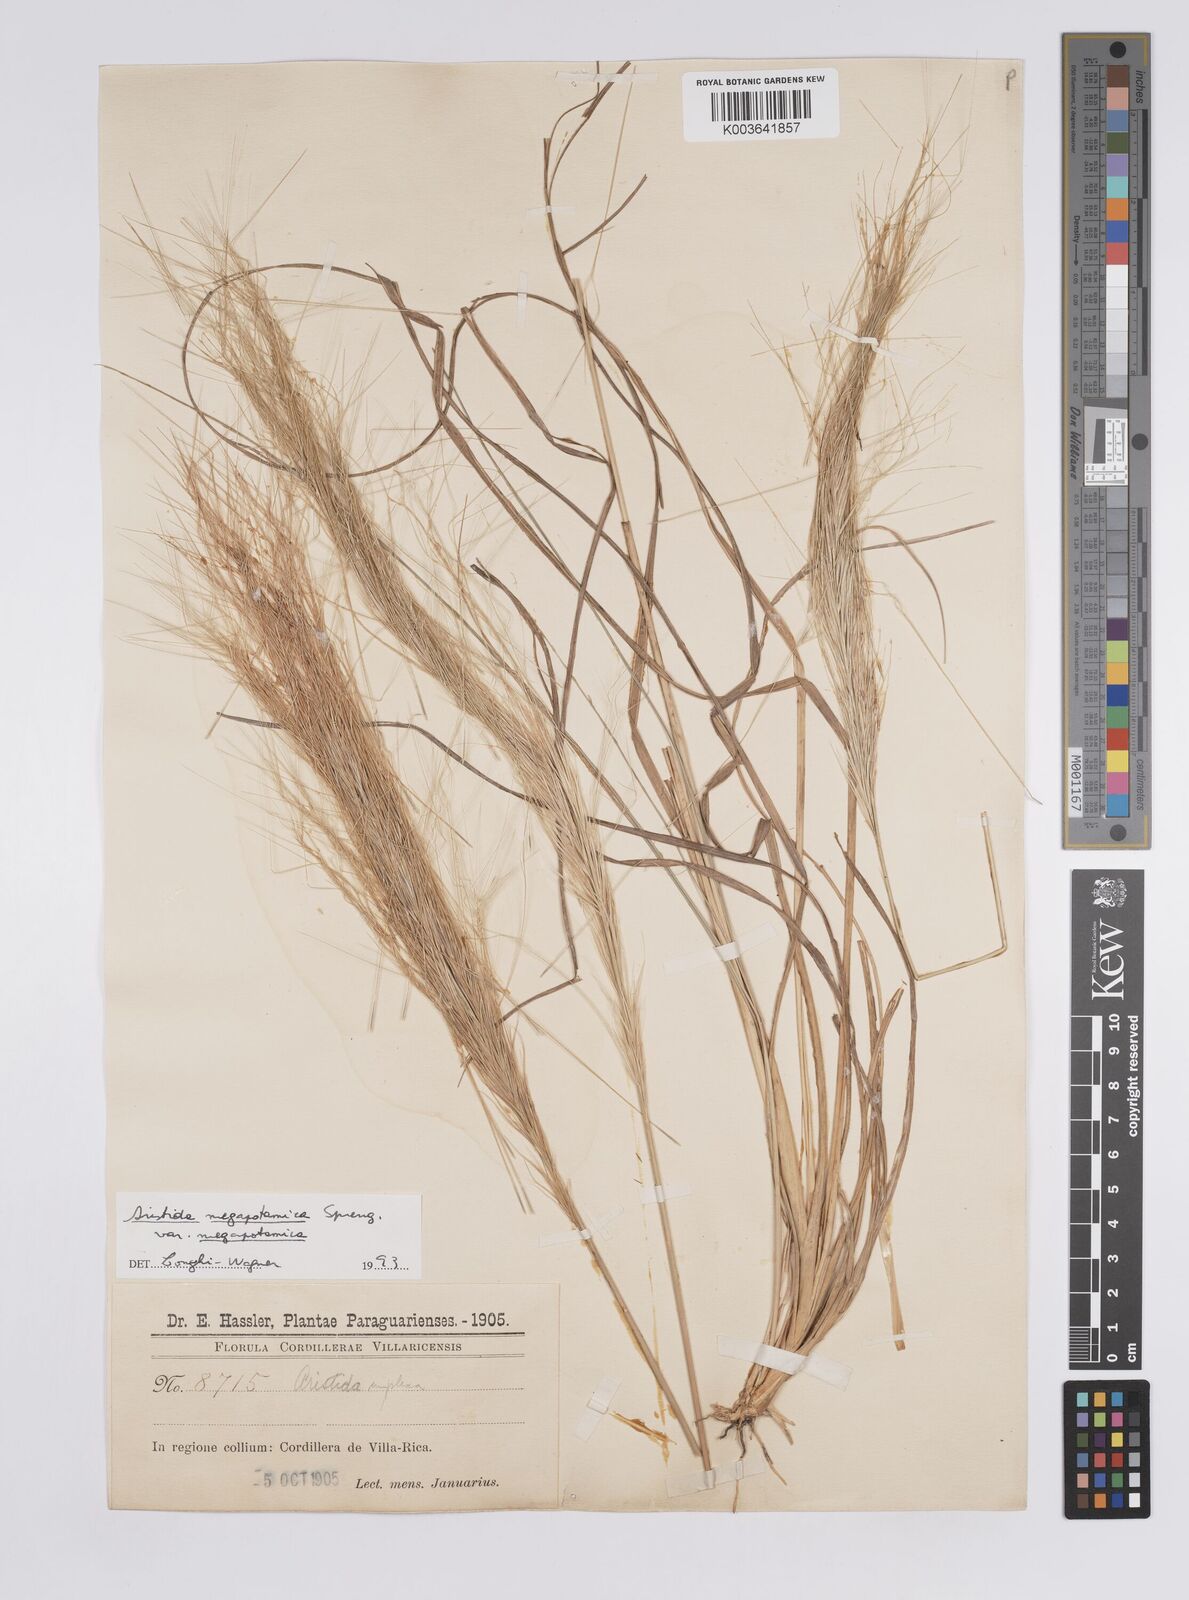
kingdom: Plantae
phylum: Tracheophyta
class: Liliopsida
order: Poales
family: Poaceae
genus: Aristida
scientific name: Aristida megapotamica
